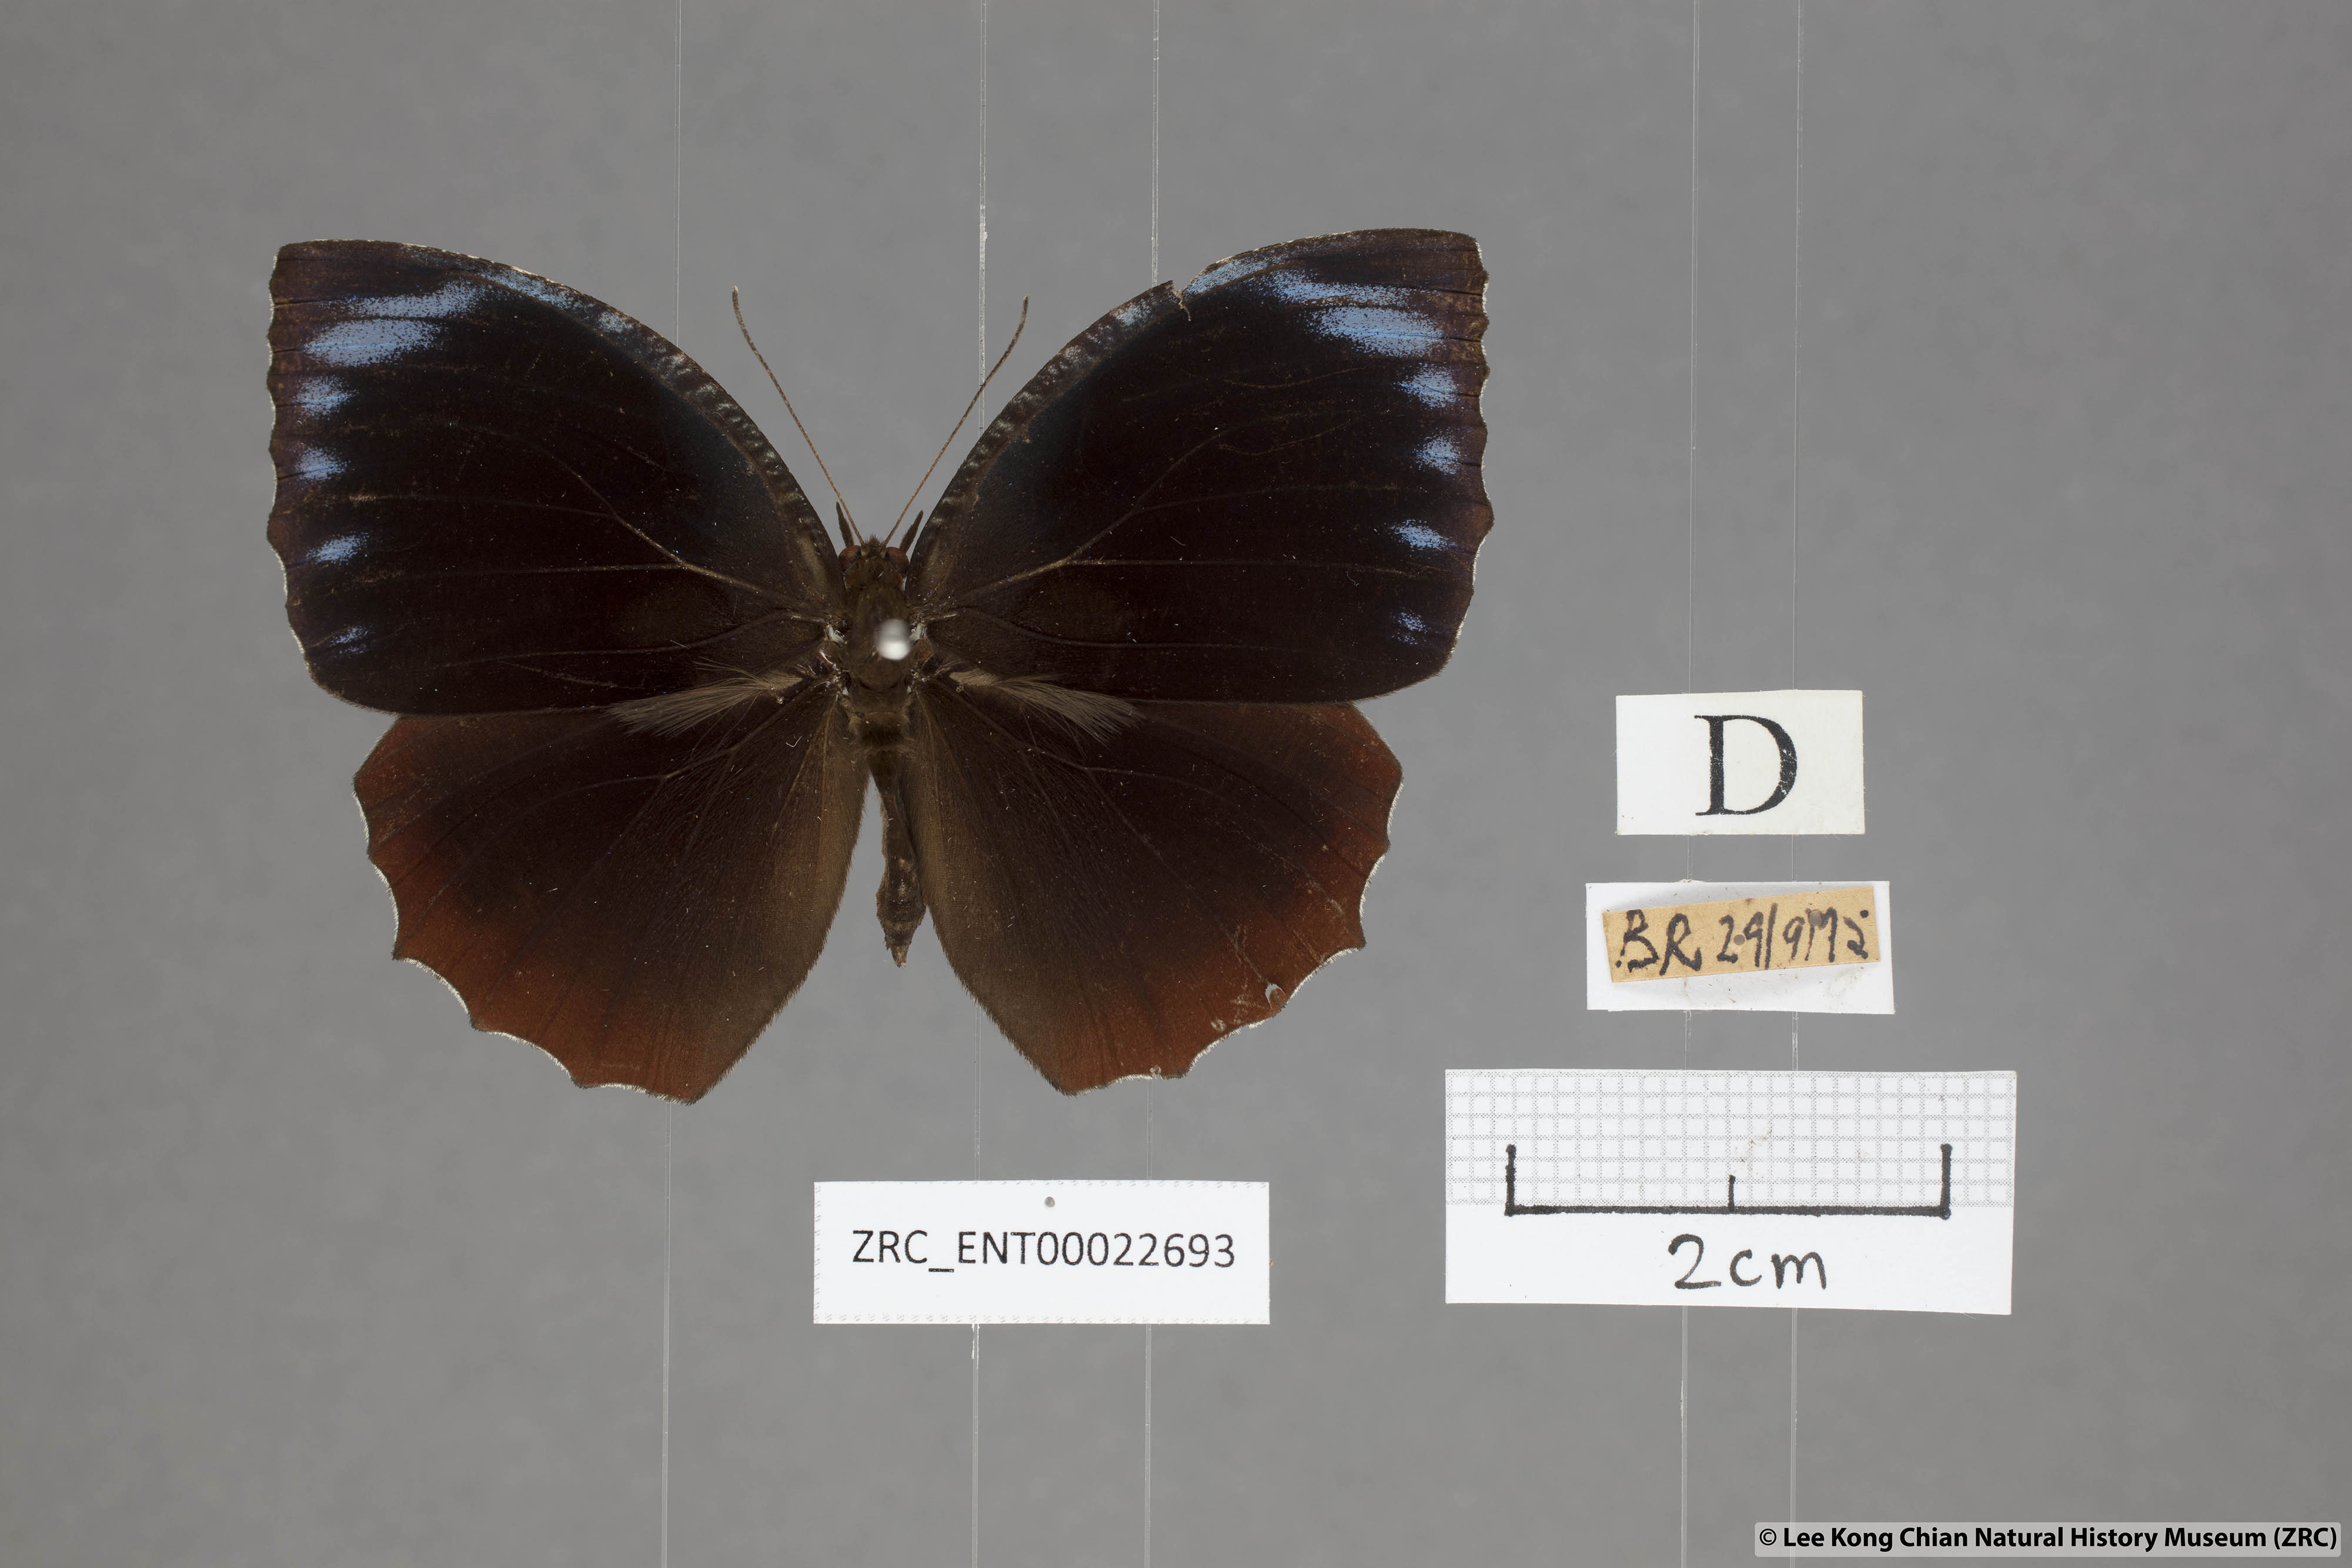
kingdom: Animalia
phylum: Arthropoda
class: Insecta
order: Lepidoptera
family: Nymphalidae
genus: Elymnias
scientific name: Elymnias hypermnestra
